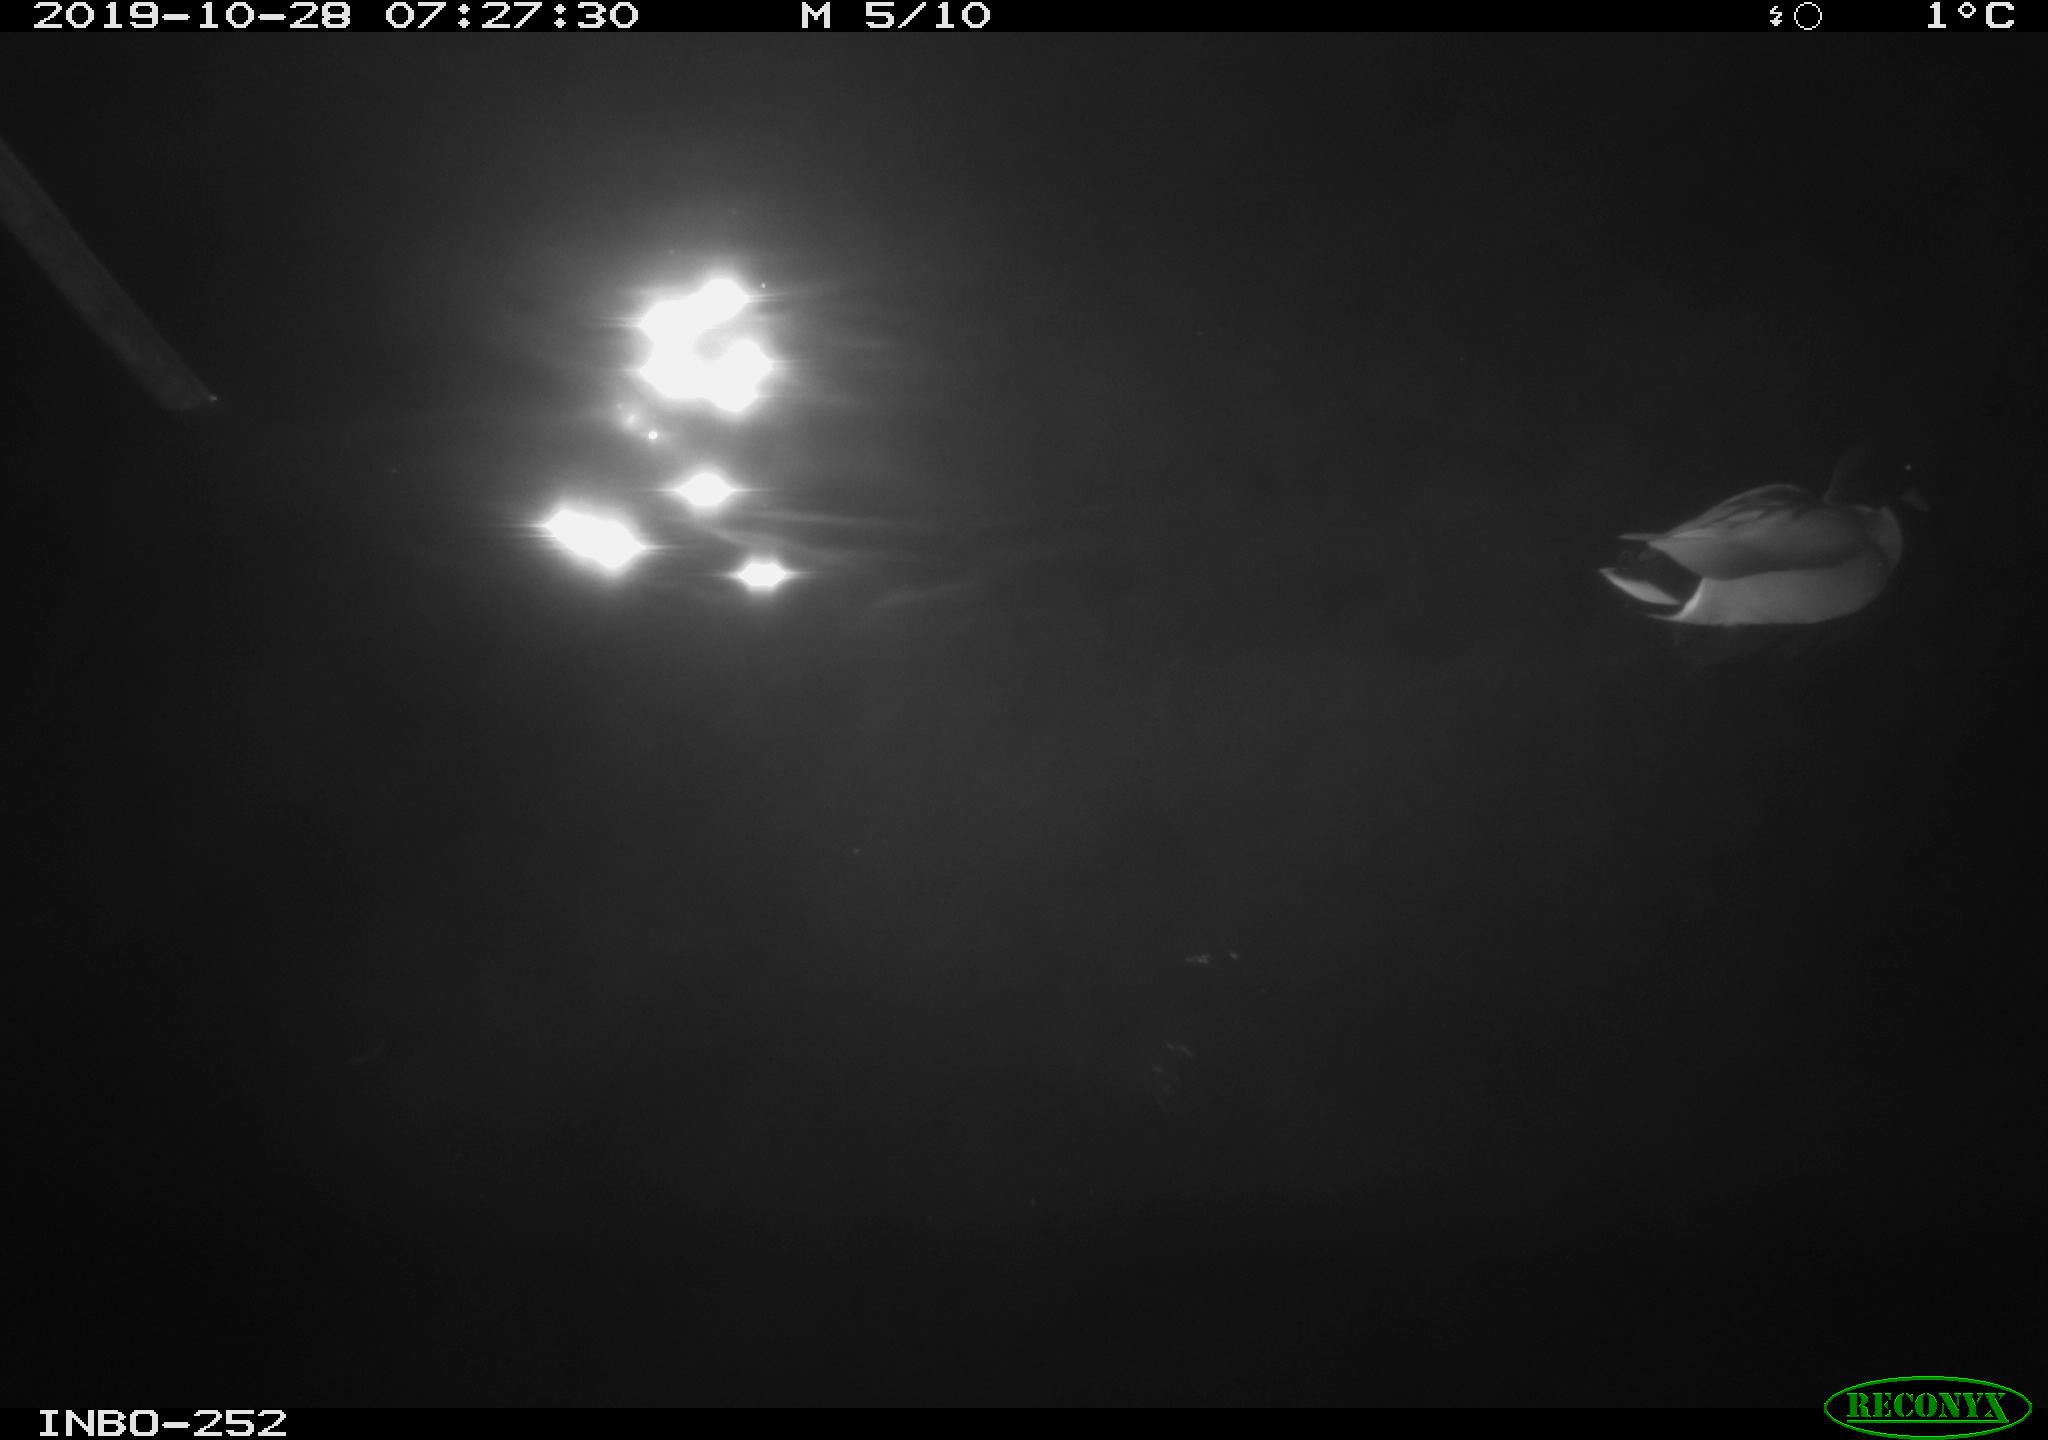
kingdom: Animalia
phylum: Chordata
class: Aves
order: Anseriformes
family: Anatidae
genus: Anas
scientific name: Anas platyrhynchos
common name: Mallard
